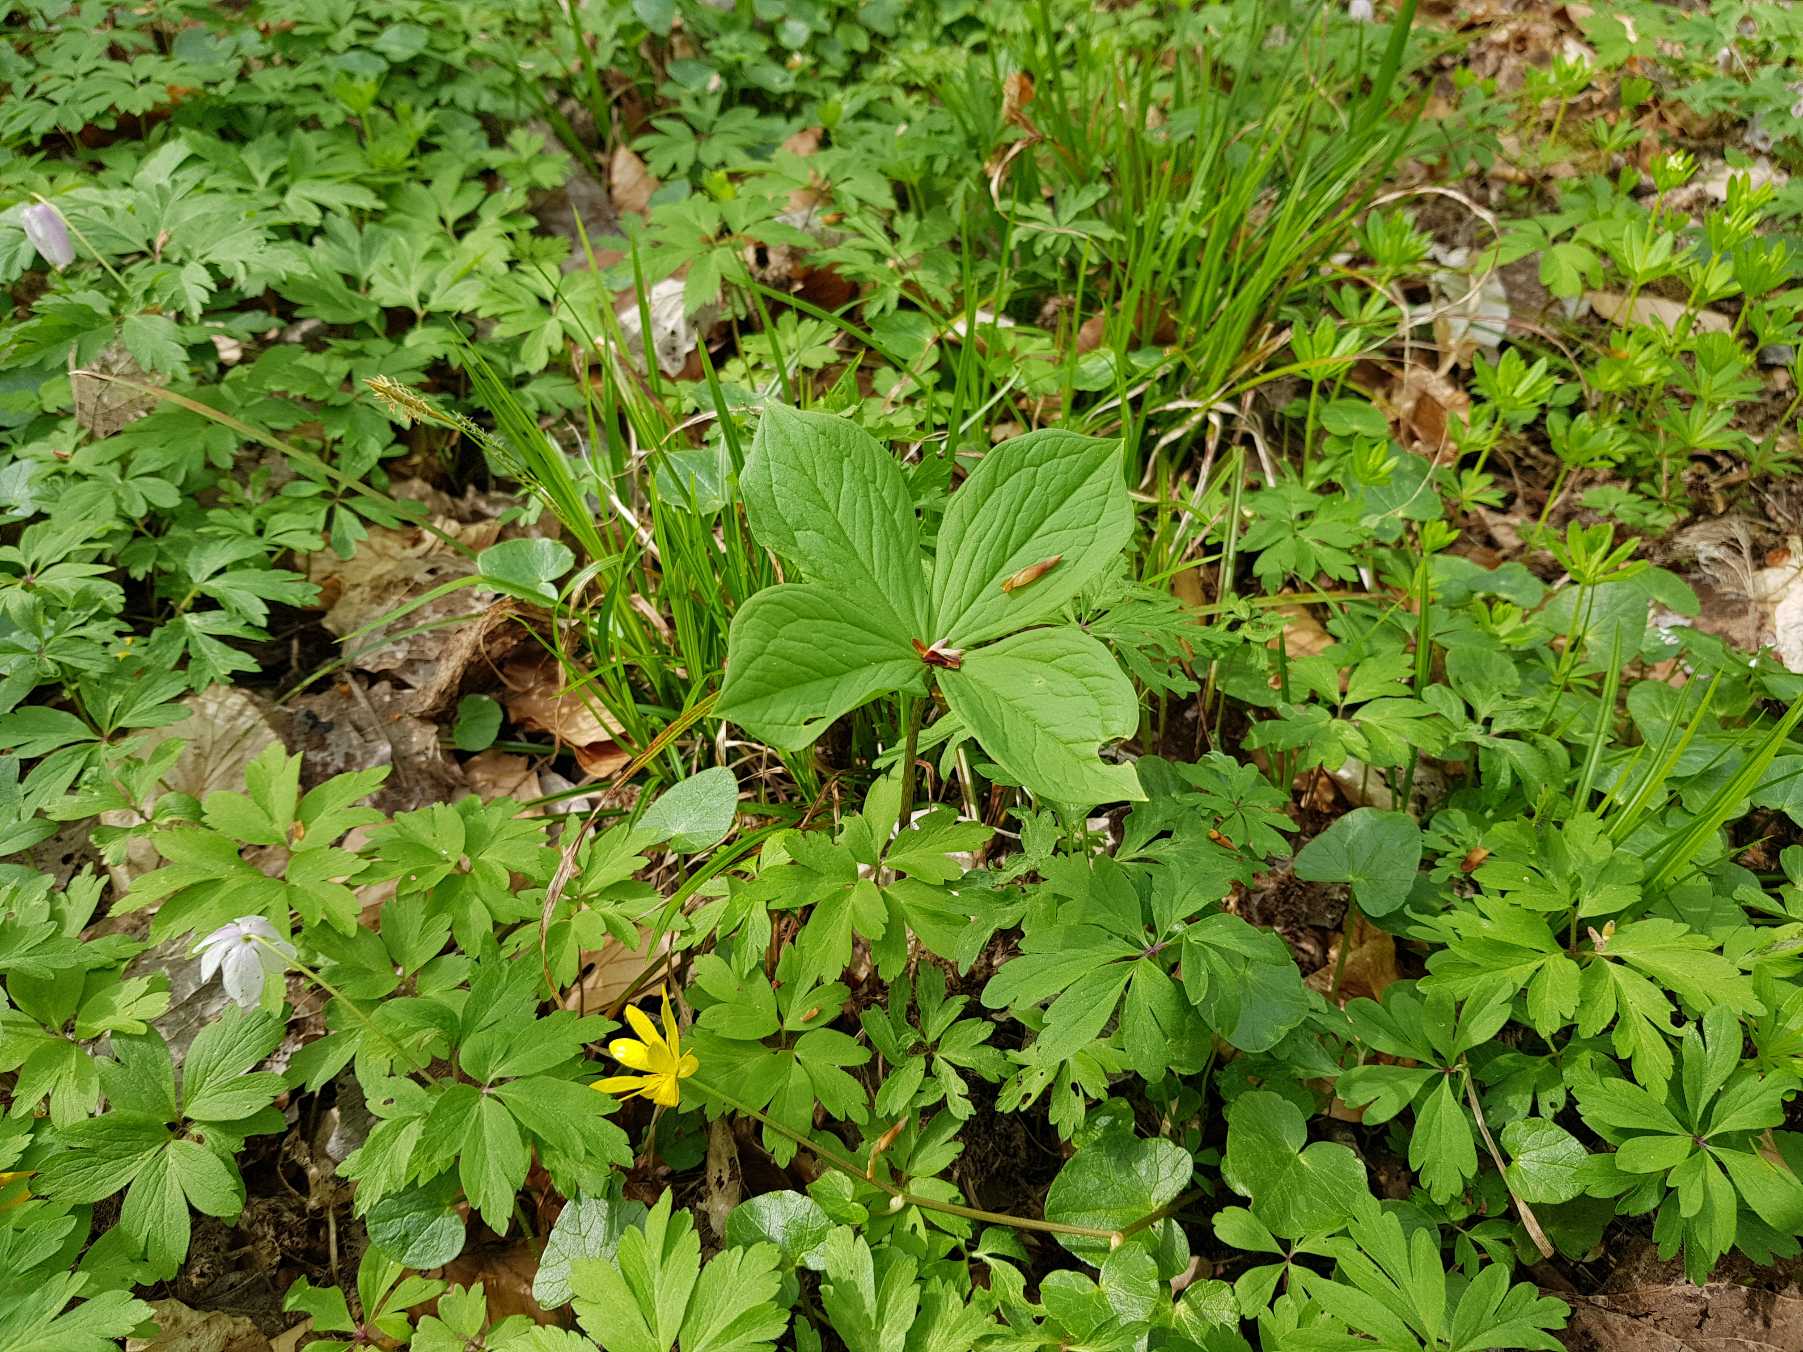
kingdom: Plantae
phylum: Tracheophyta
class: Liliopsida
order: Liliales
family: Melanthiaceae
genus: Paris
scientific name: Paris quadrifolia
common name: Firblad
